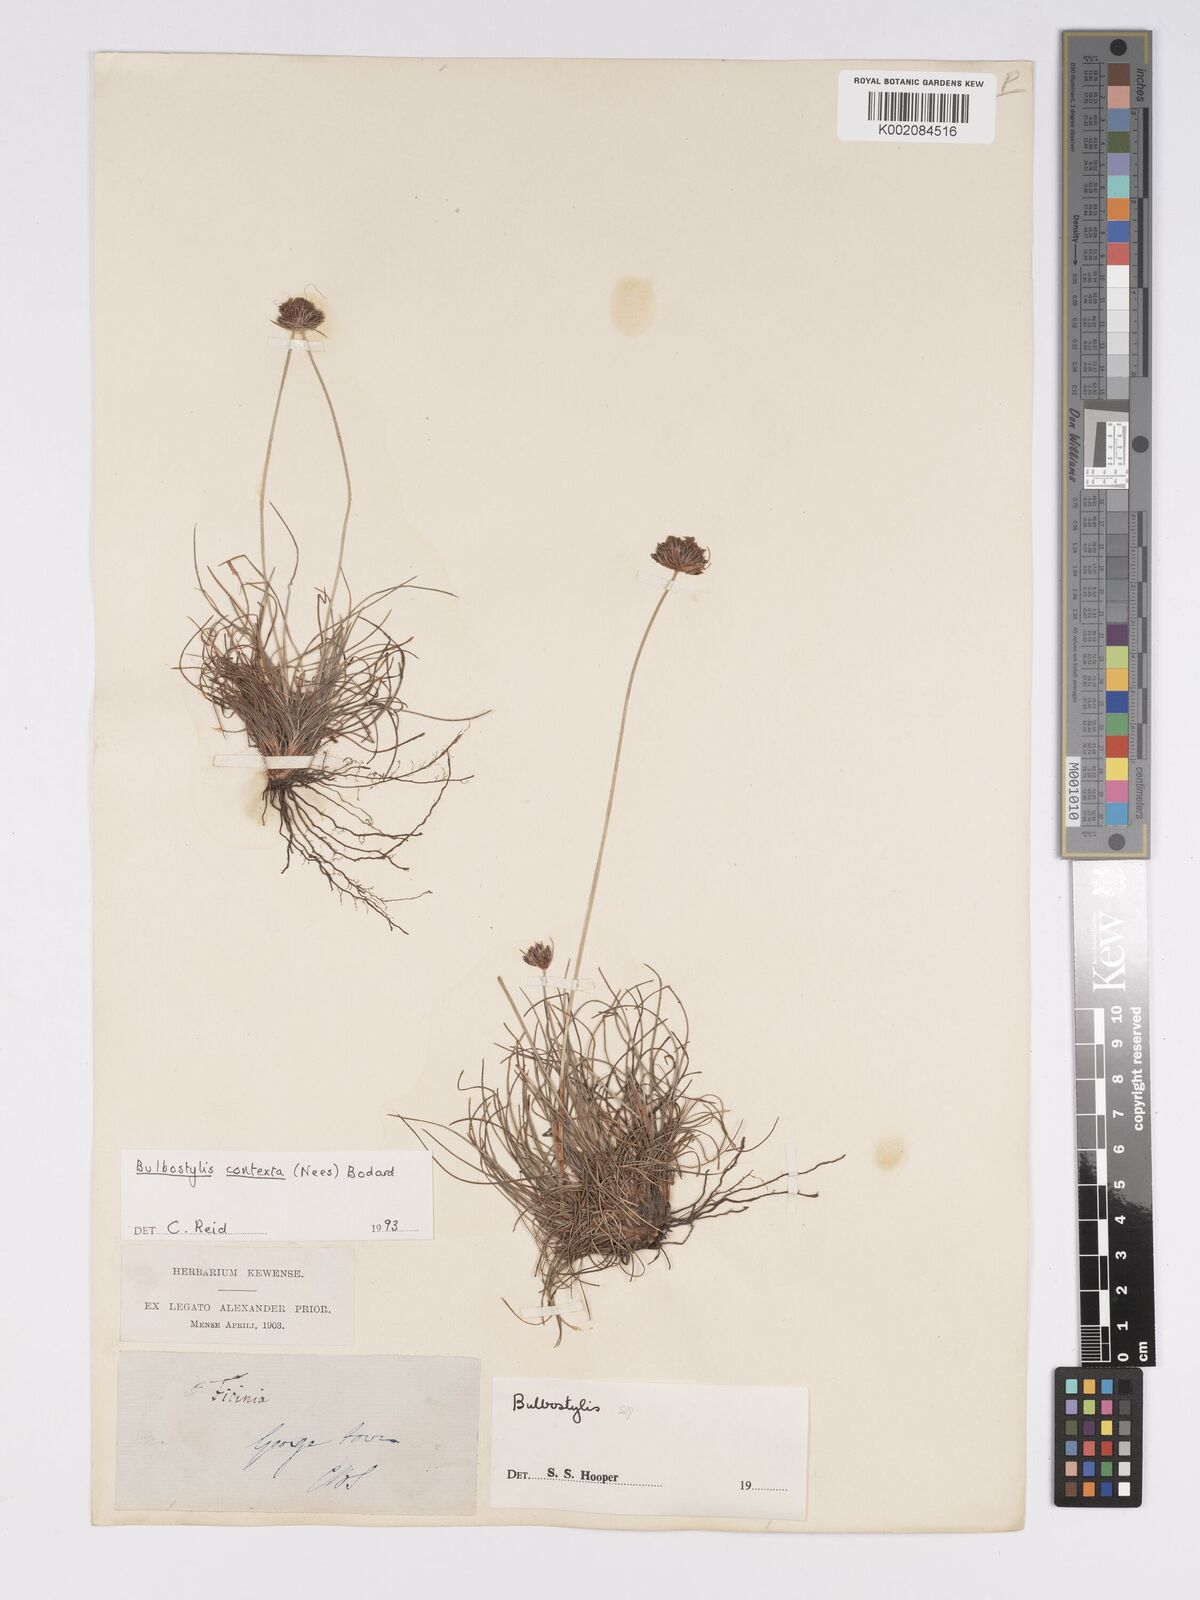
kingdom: Plantae
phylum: Tracheophyta
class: Liliopsida
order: Poales
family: Cyperaceae
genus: Bulbostylis
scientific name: Bulbostylis contexta
